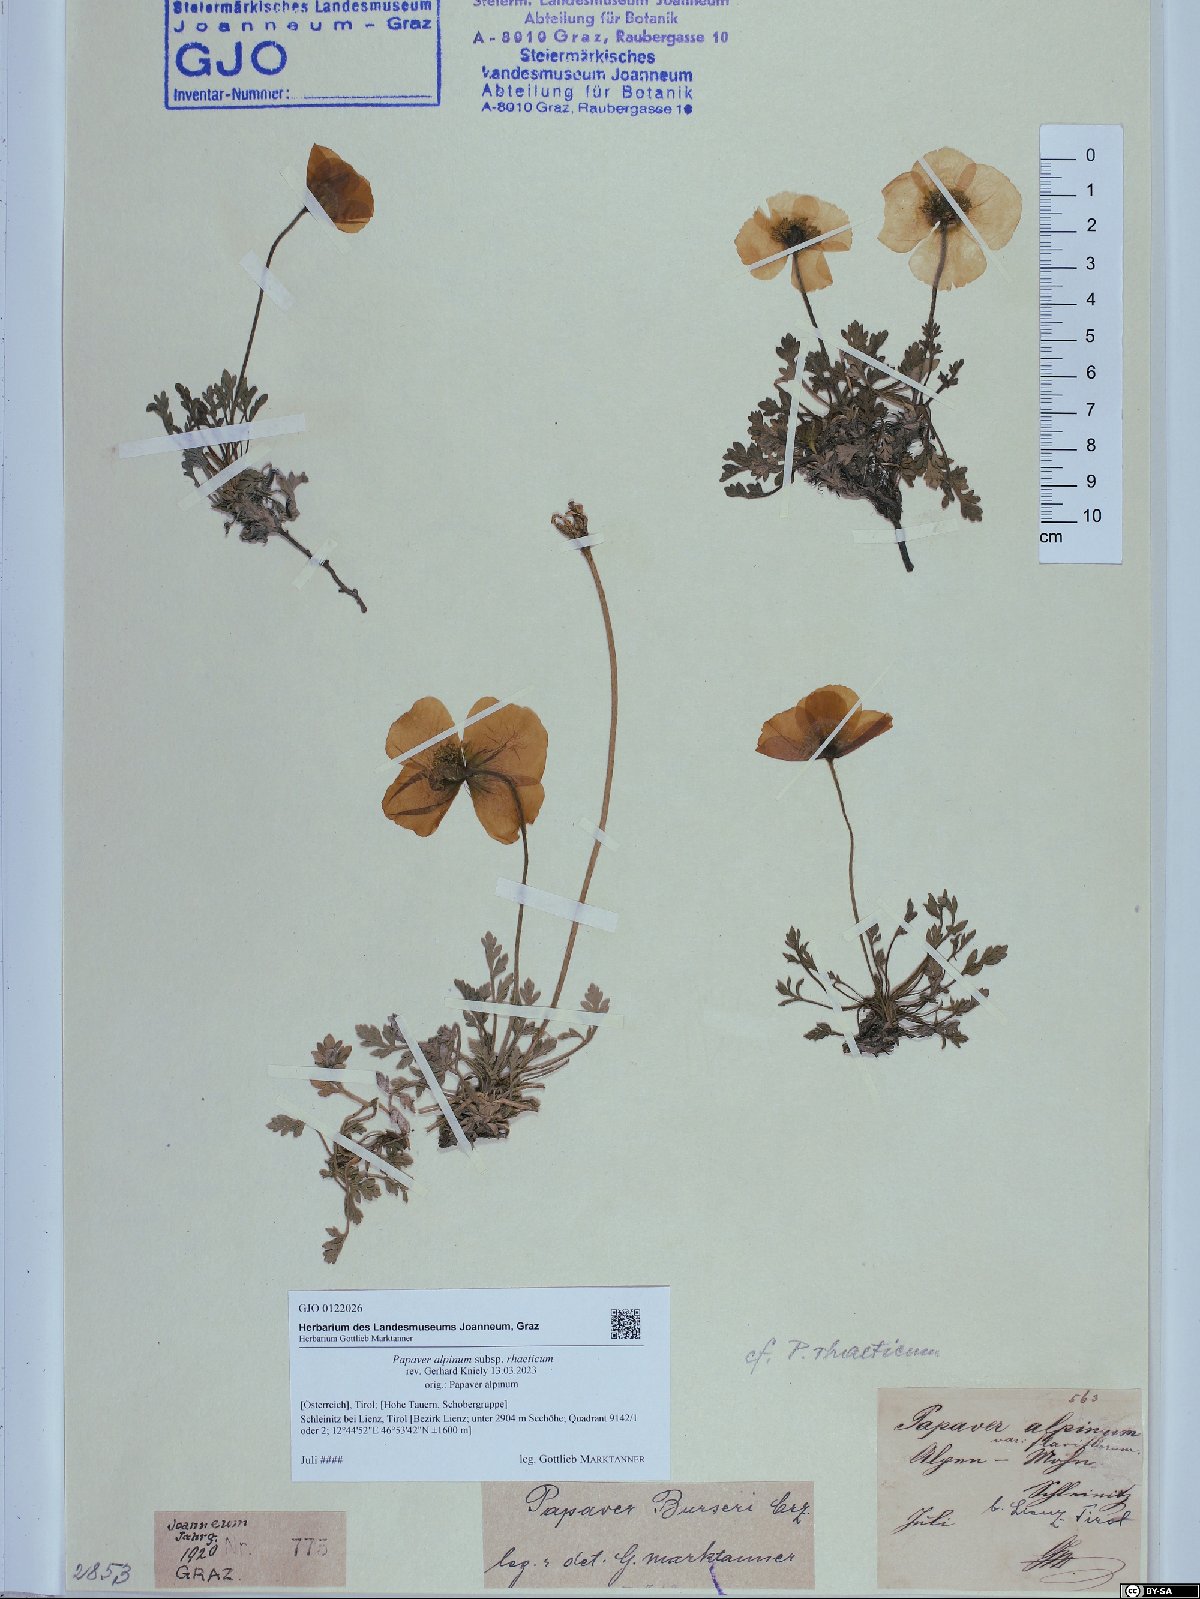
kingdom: Plantae
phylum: Tracheophyta
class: Magnoliopsida
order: Ranunculales
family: Papaveraceae
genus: Papaver
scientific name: Papaver alpinum
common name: Austrian poppy
